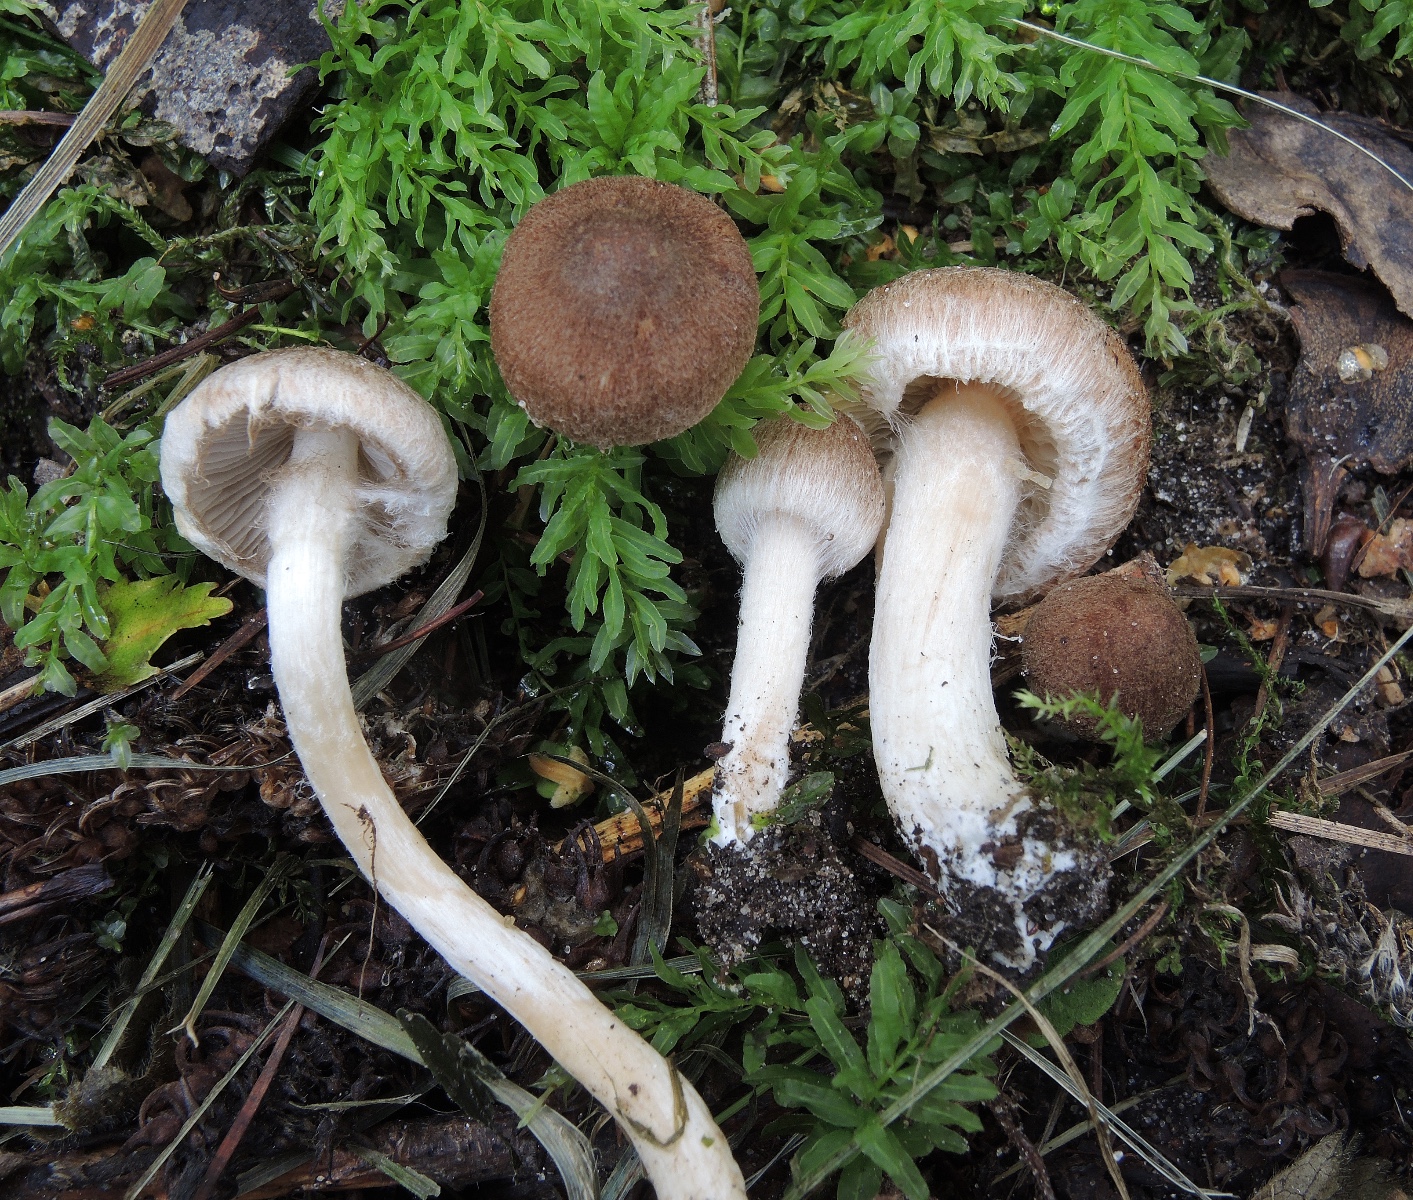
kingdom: Fungi
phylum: Basidiomycota
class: Agaricomycetes
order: Agaricales
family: Inocybaceae
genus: Inocybe
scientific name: Inocybe
